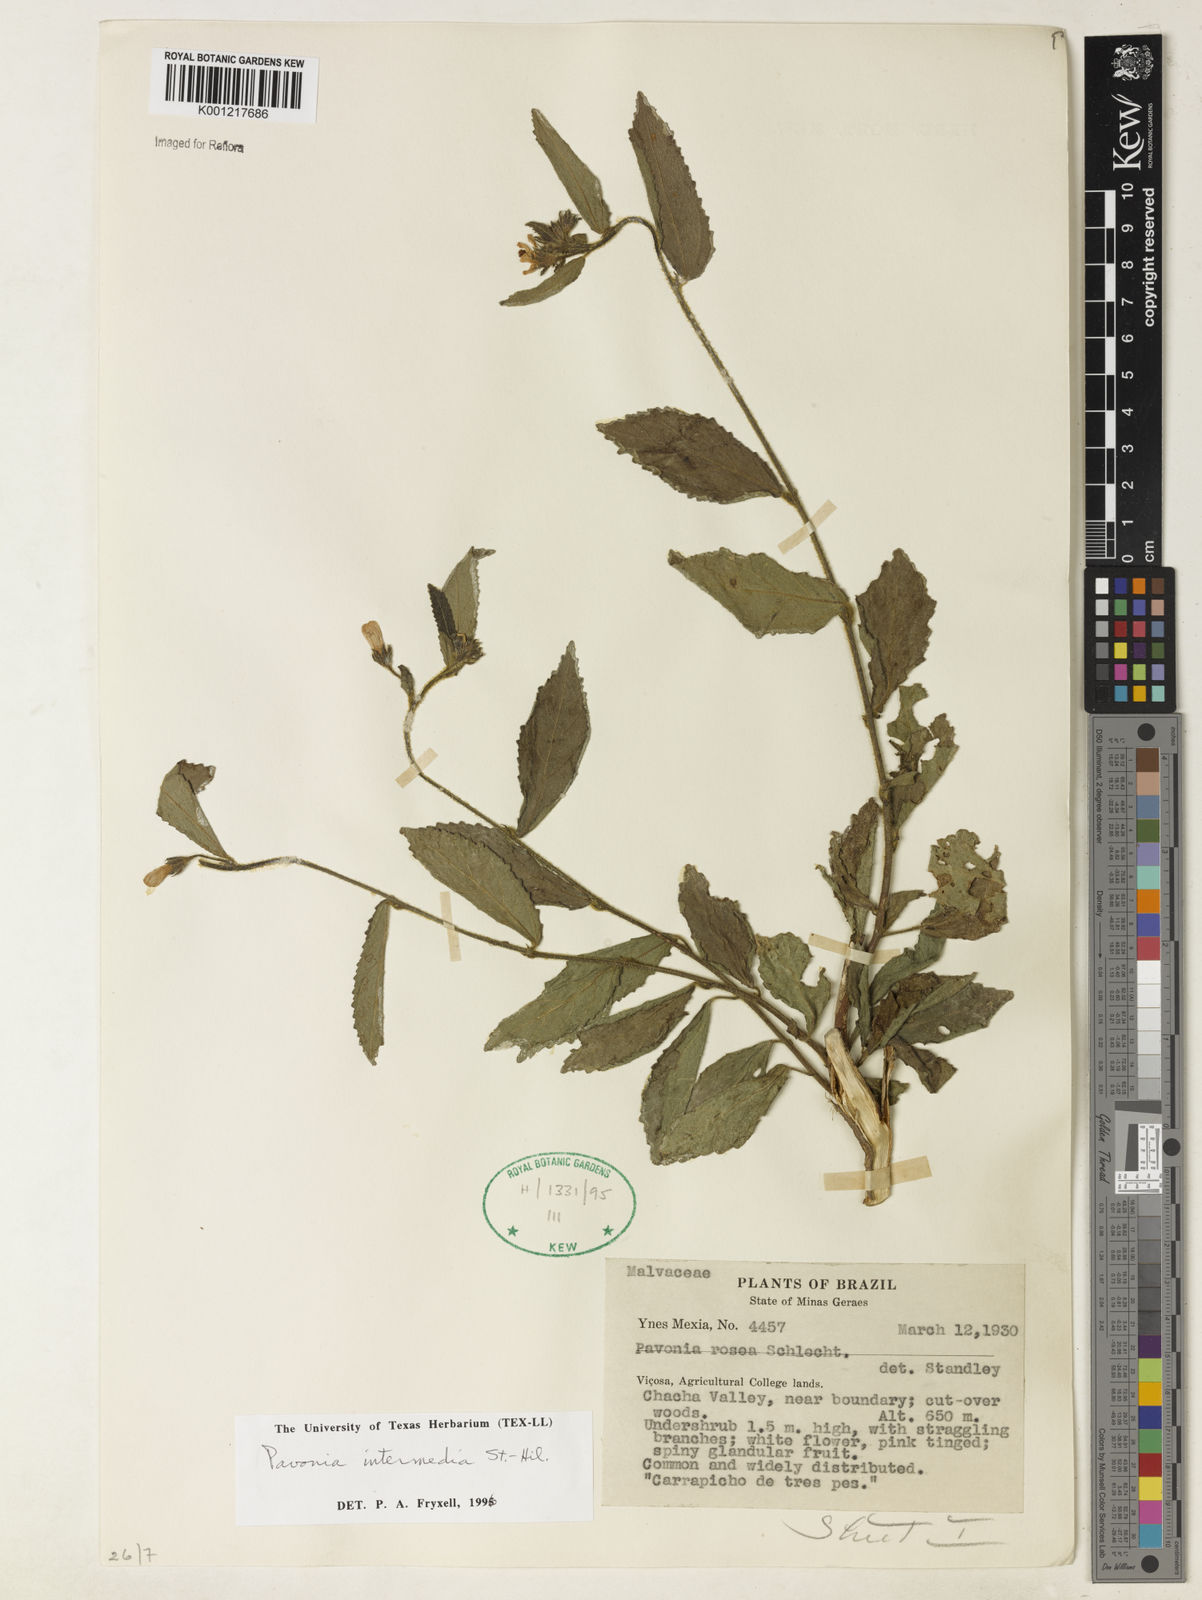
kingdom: Plantae
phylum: Tracheophyta
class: Magnoliopsida
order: Malvales
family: Malvaceae
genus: Pavonia
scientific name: Pavonia intermedia
